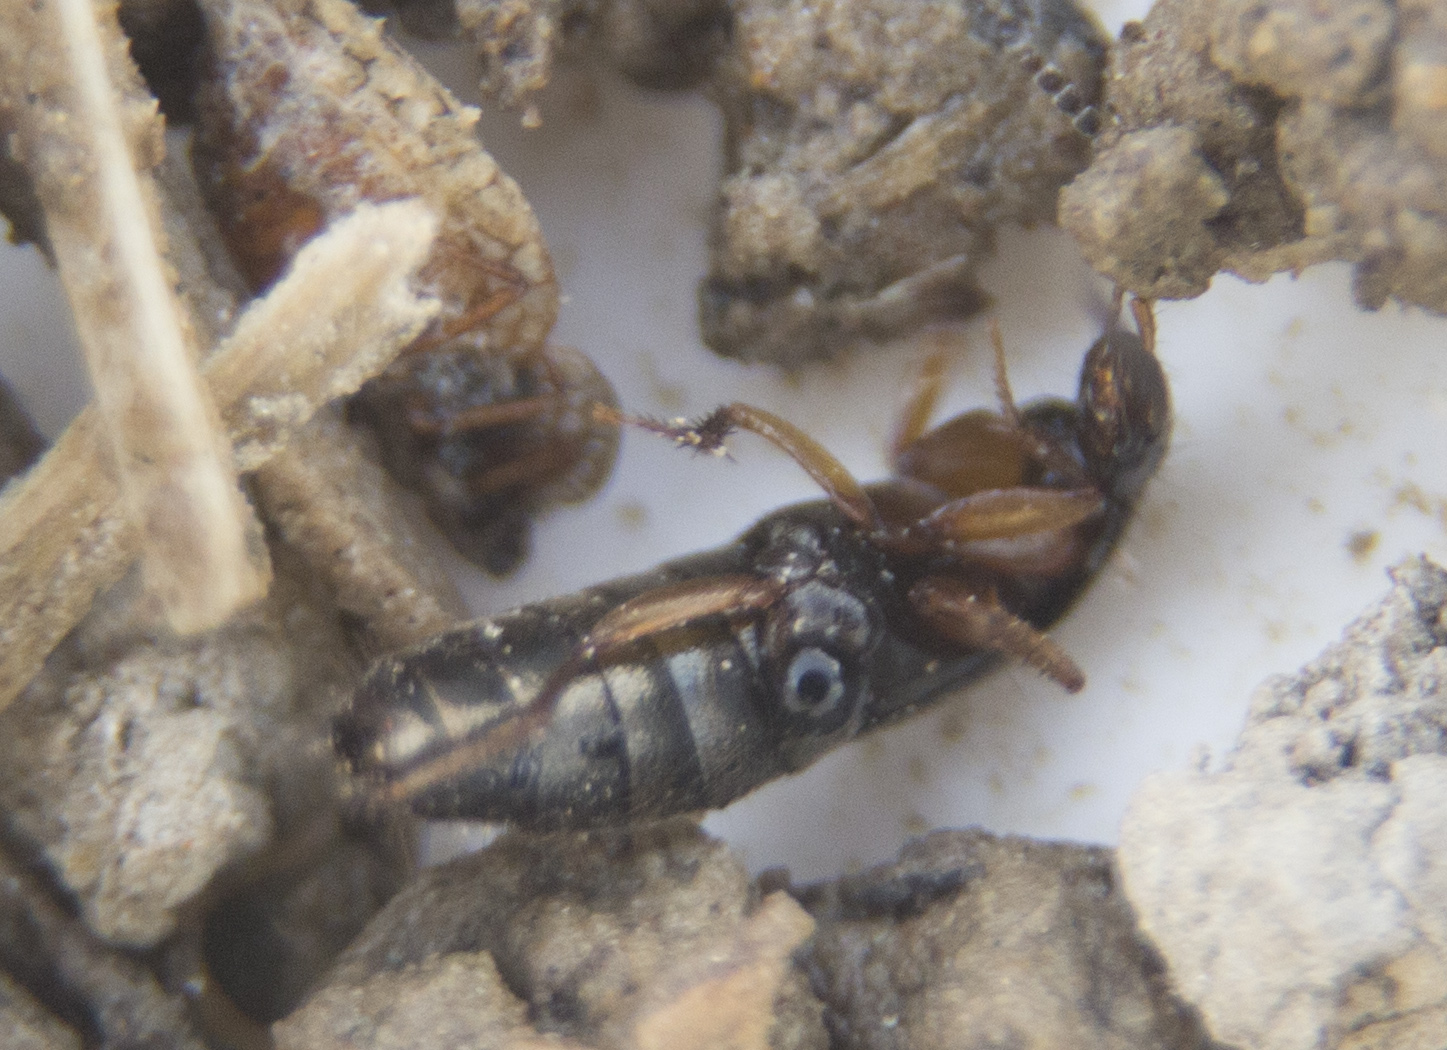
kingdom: Animalia
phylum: Arthropoda
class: Insecta
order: Coleoptera
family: Staphylinidae
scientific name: Staphylinidae
